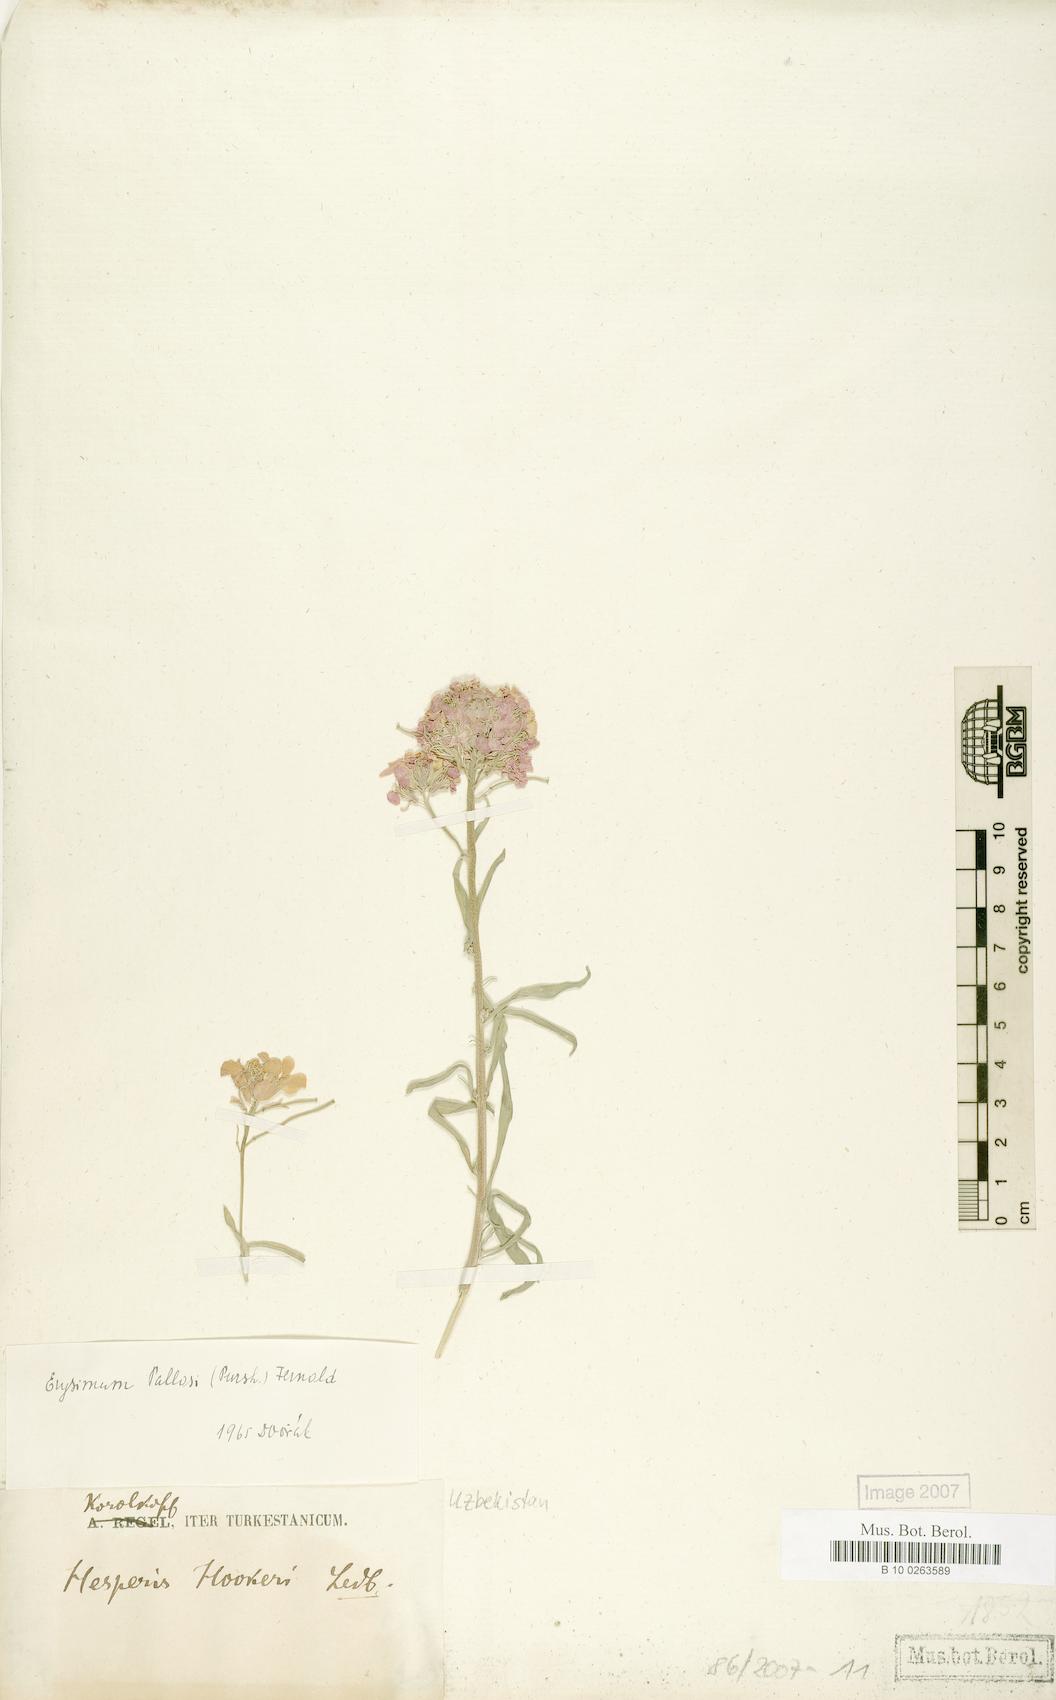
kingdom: Plantae
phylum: Tracheophyta
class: Magnoliopsida
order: Brassicales
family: Brassicaceae
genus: Erysimum
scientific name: Erysimum cyaneum
